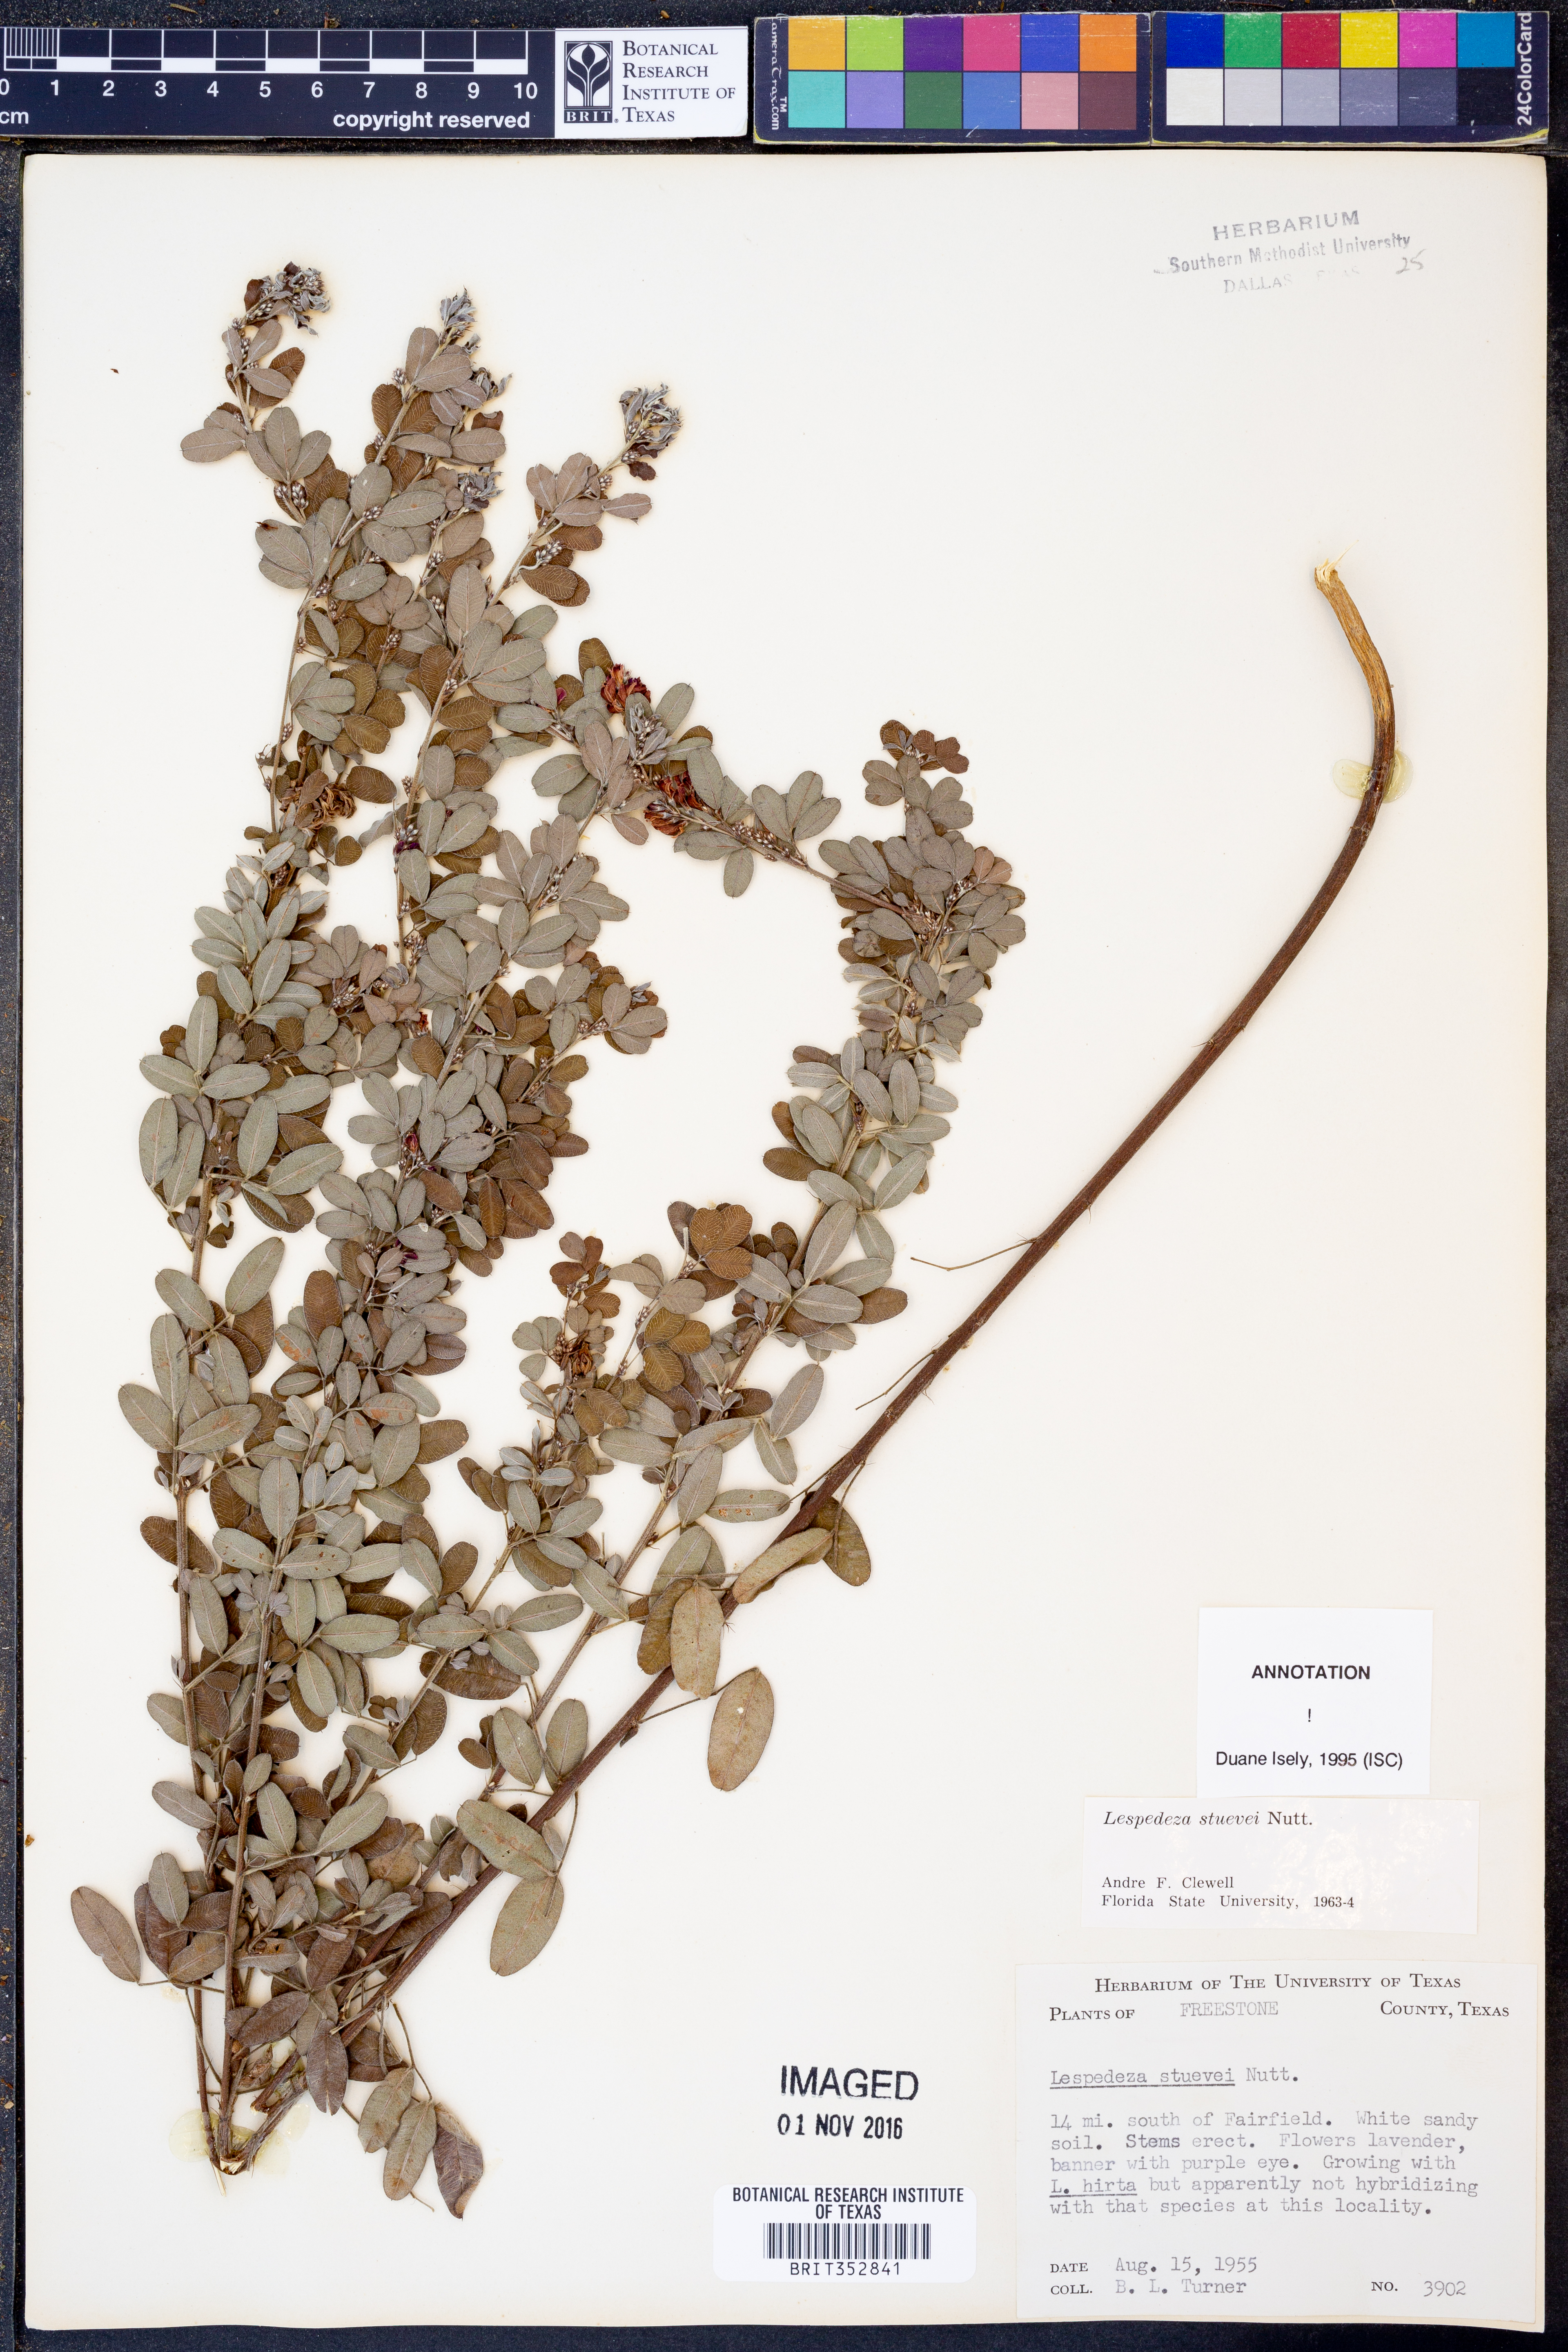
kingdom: Plantae
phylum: Tracheophyta
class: Magnoliopsida
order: Fabales
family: Fabaceae
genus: Lespedeza
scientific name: Lespedeza stuevei
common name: Tall bush-clover
